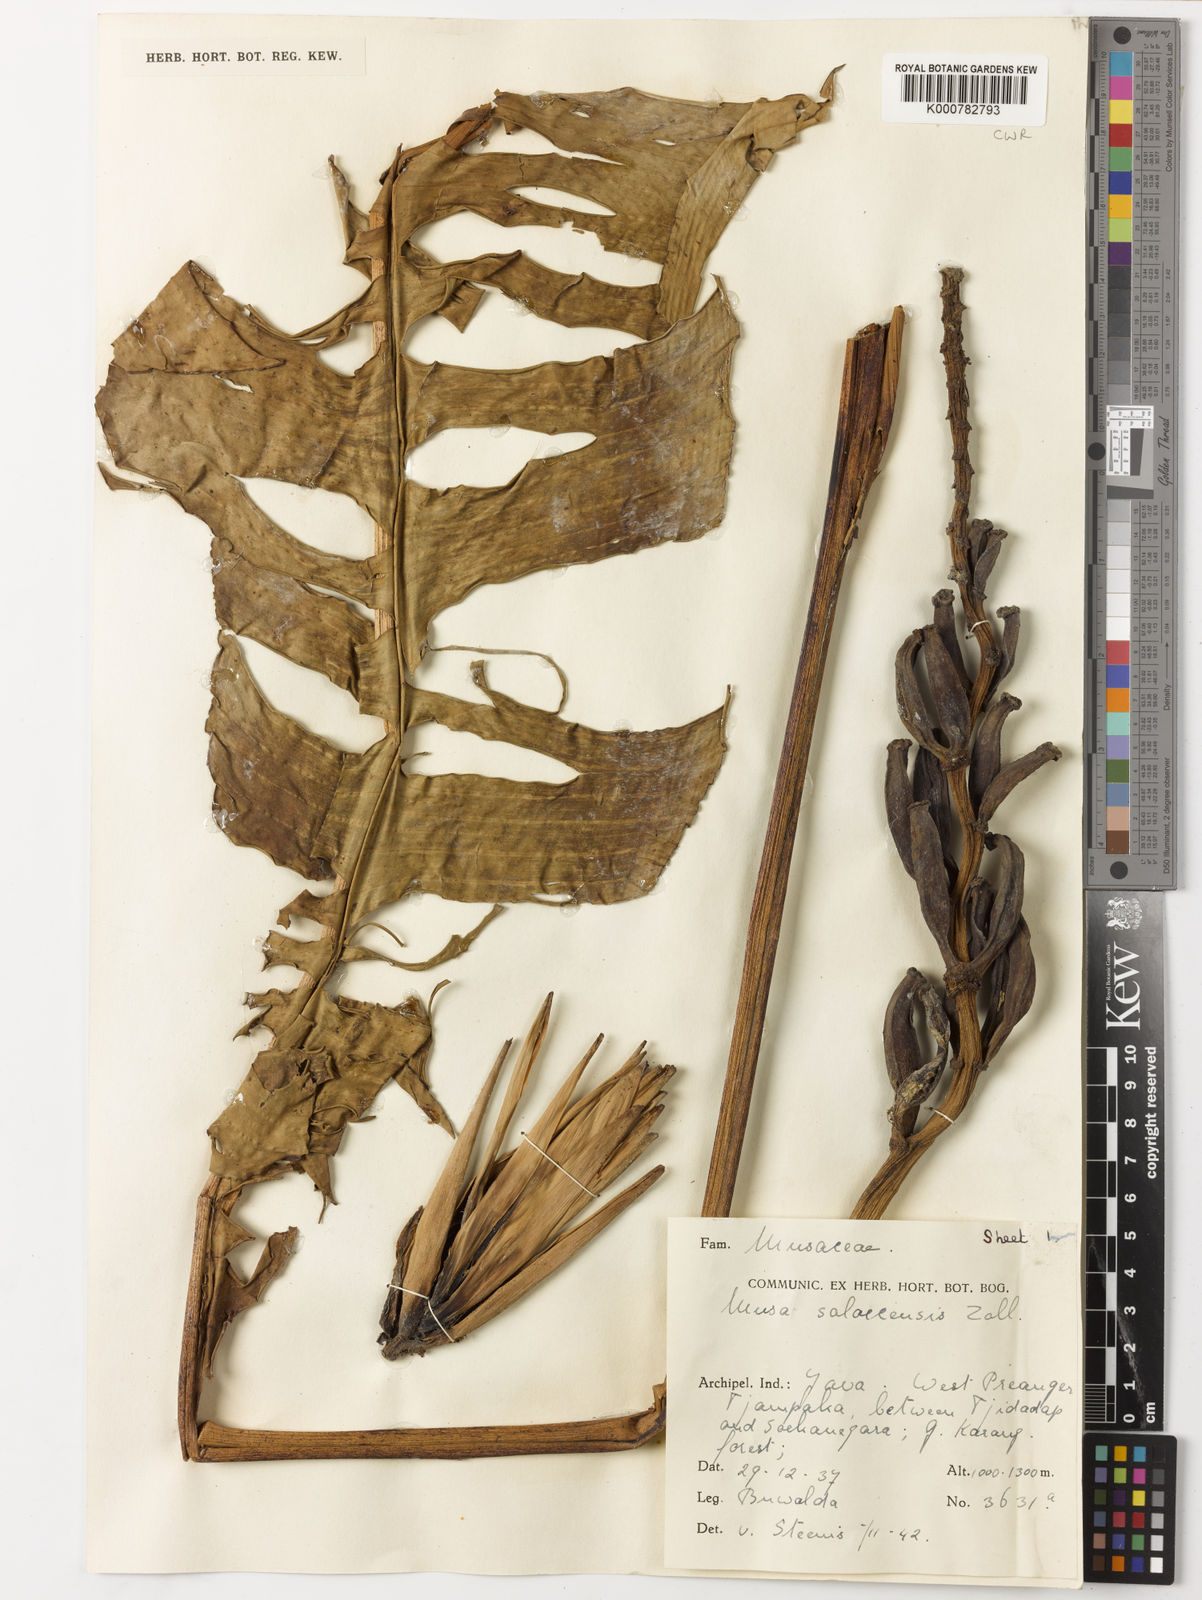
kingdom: Plantae
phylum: Tracheophyta
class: Liliopsida
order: Zingiberales
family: Musaceae
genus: Musa
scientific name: Musa
